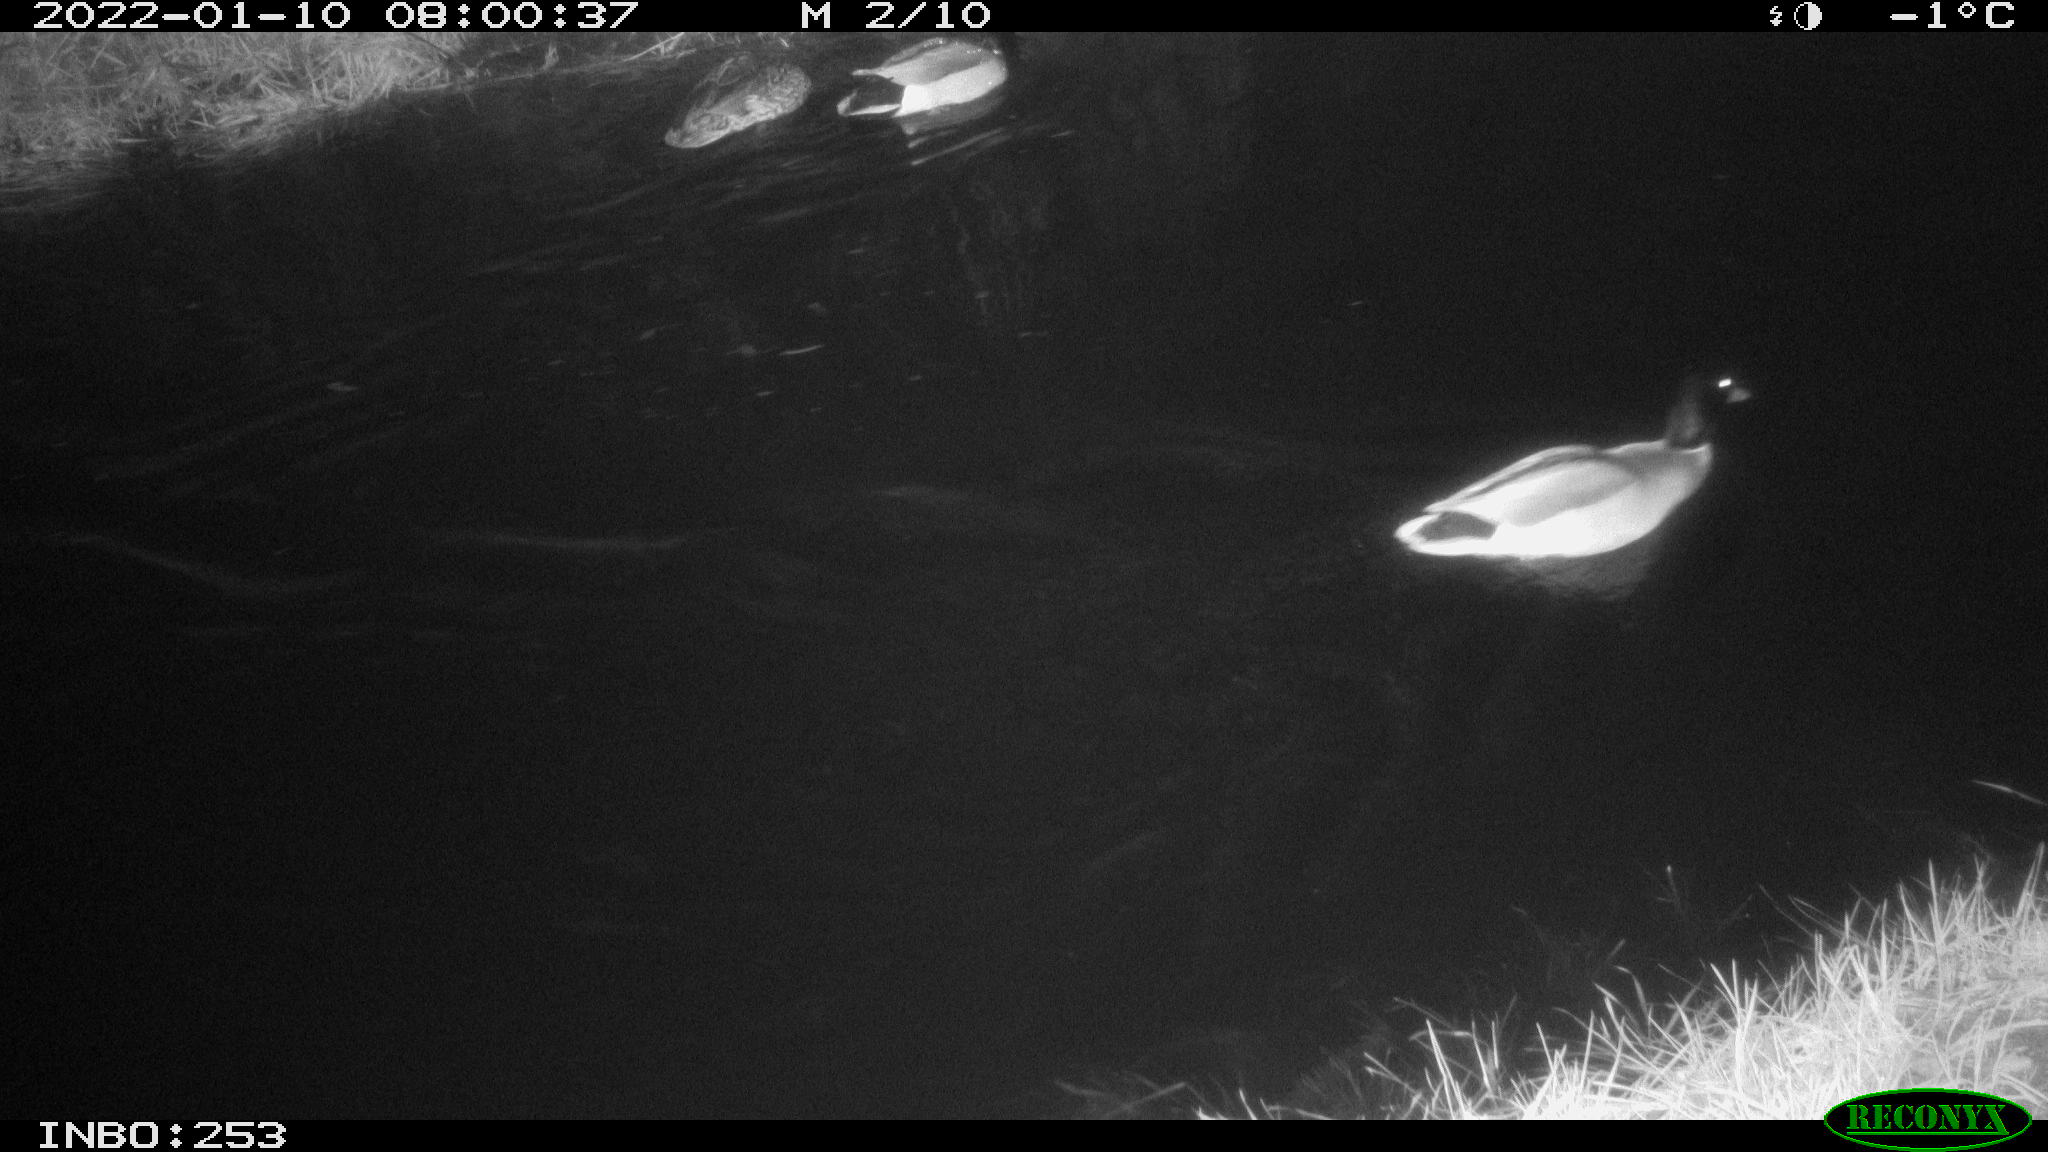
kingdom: Animalia
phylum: Chordata
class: Aves
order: Anseriformes
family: Anatidae
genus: Anas
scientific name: Anas
